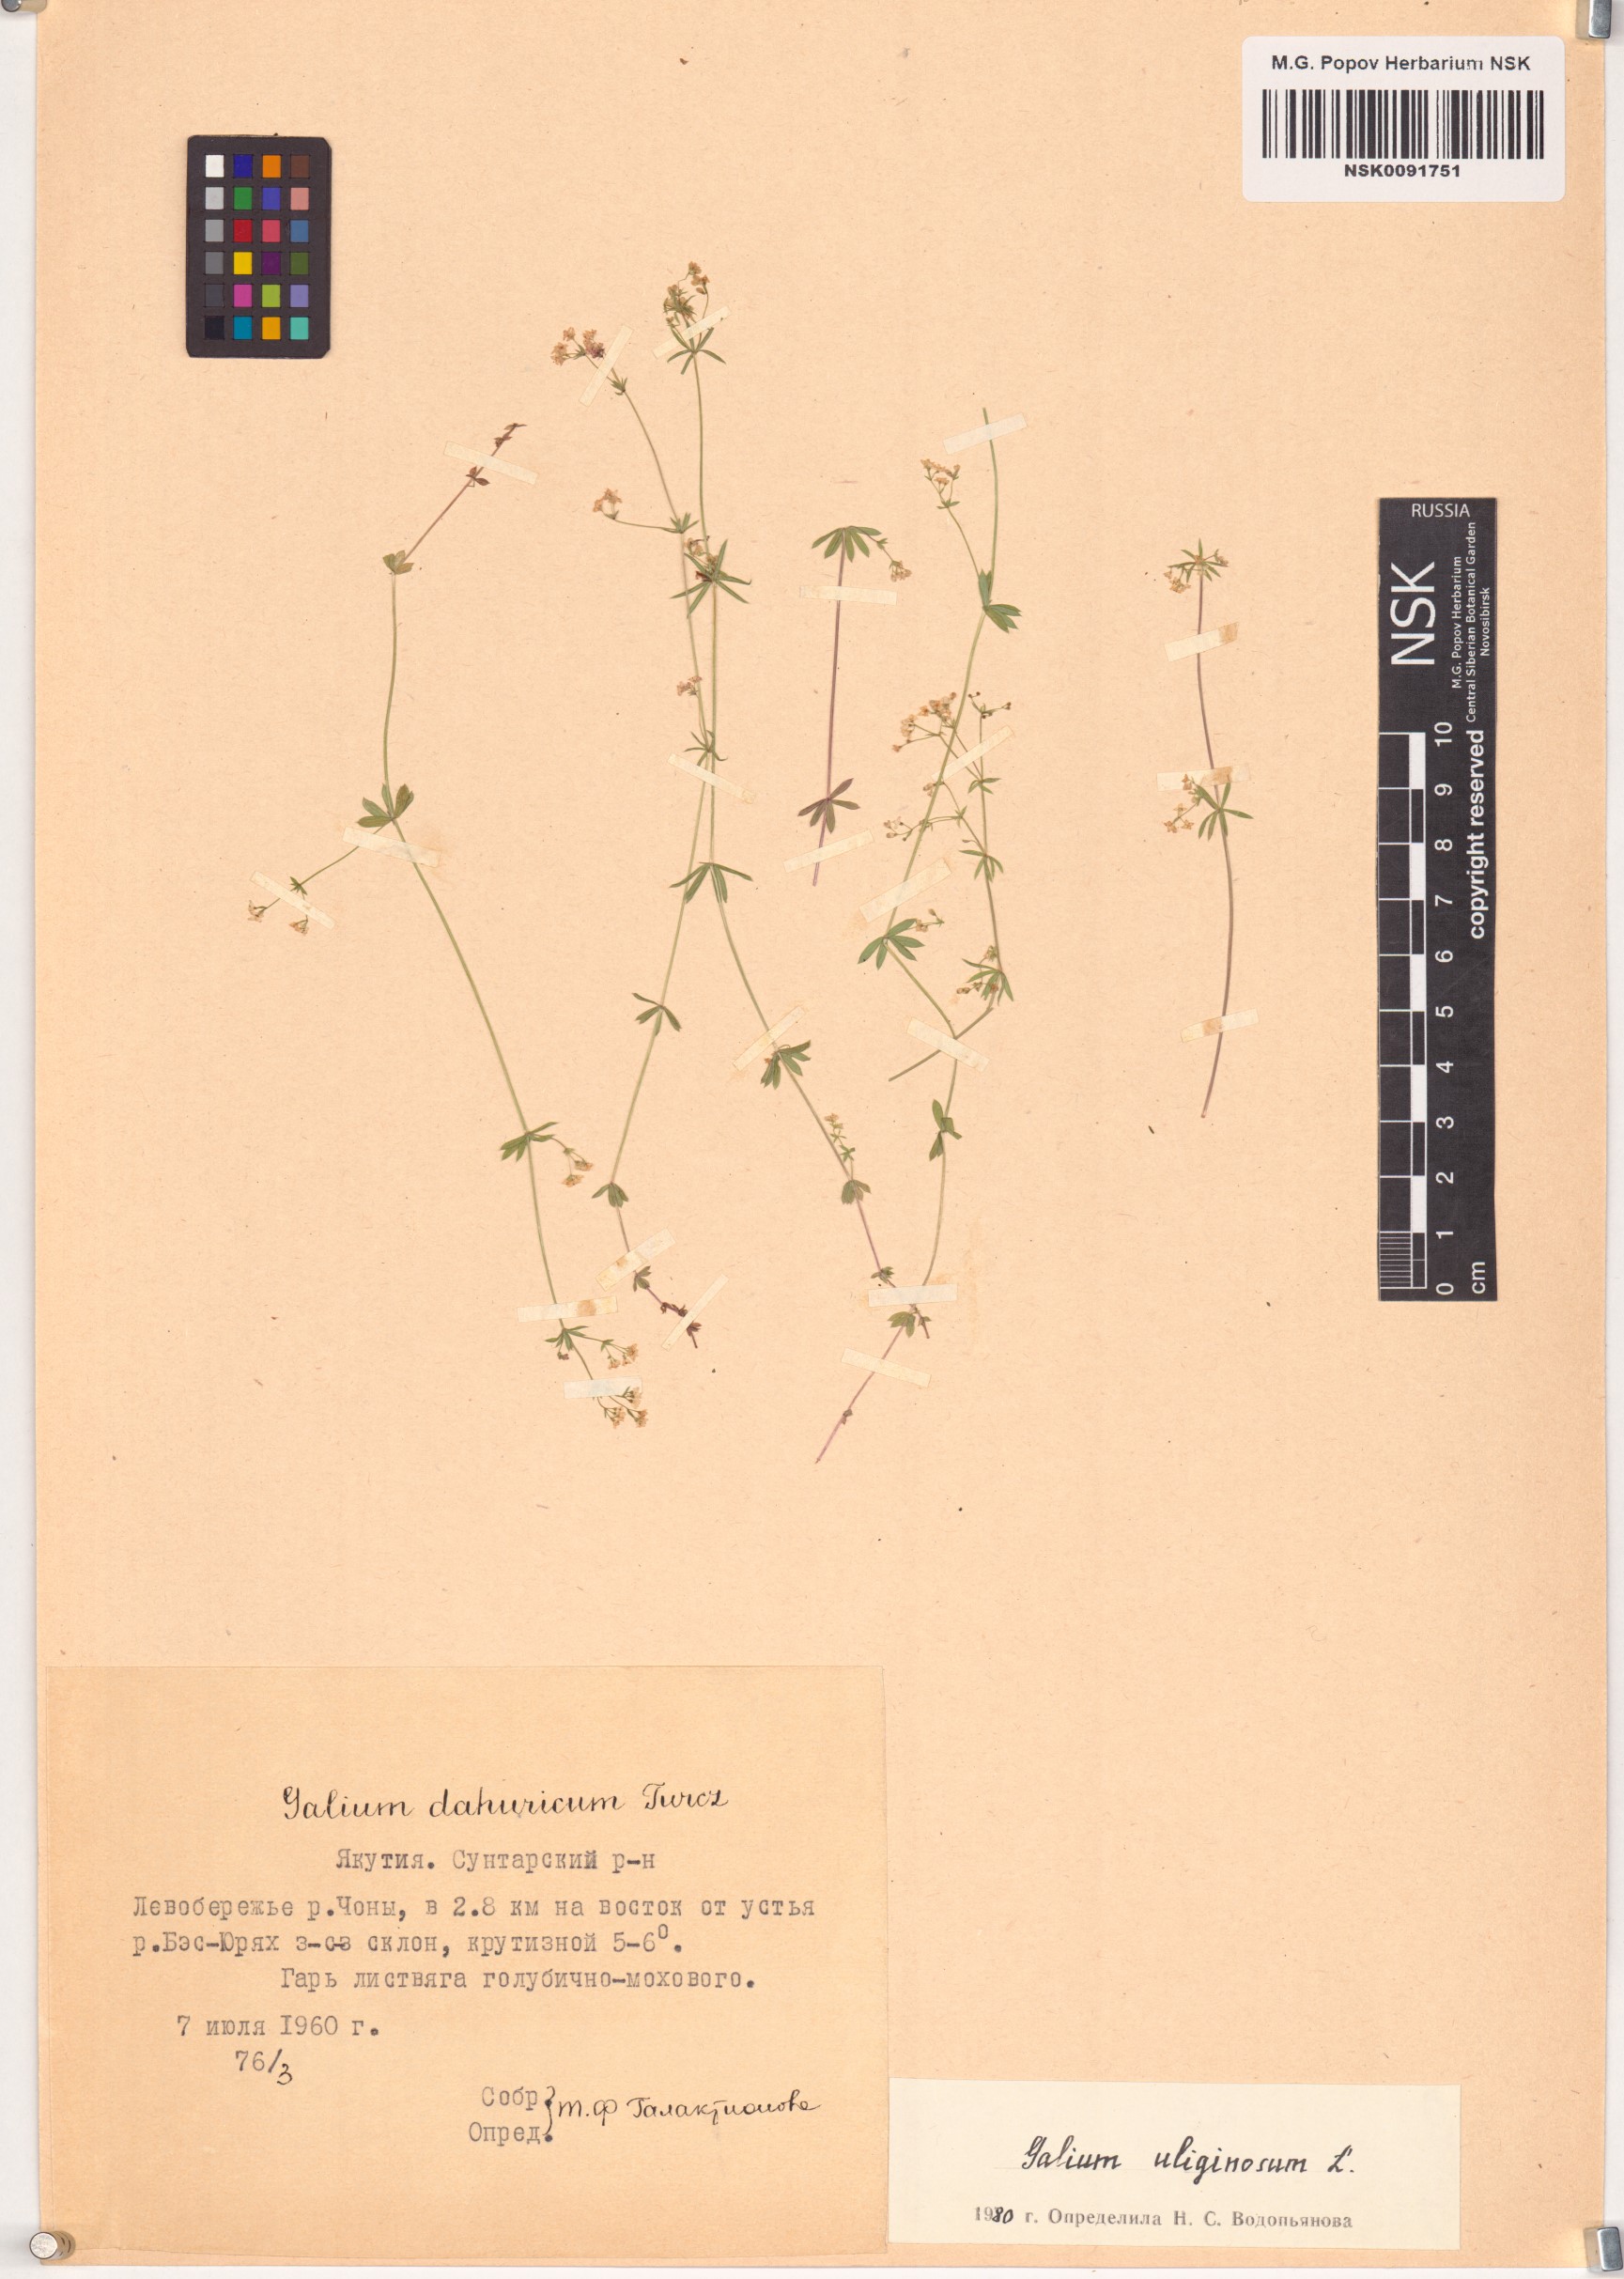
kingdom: Plantae
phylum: Tracheophyta
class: Magnoliopsida
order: Gentianales
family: Rubiaceae
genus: Galium
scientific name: Galium uliginosum
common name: Fen bedstraw
